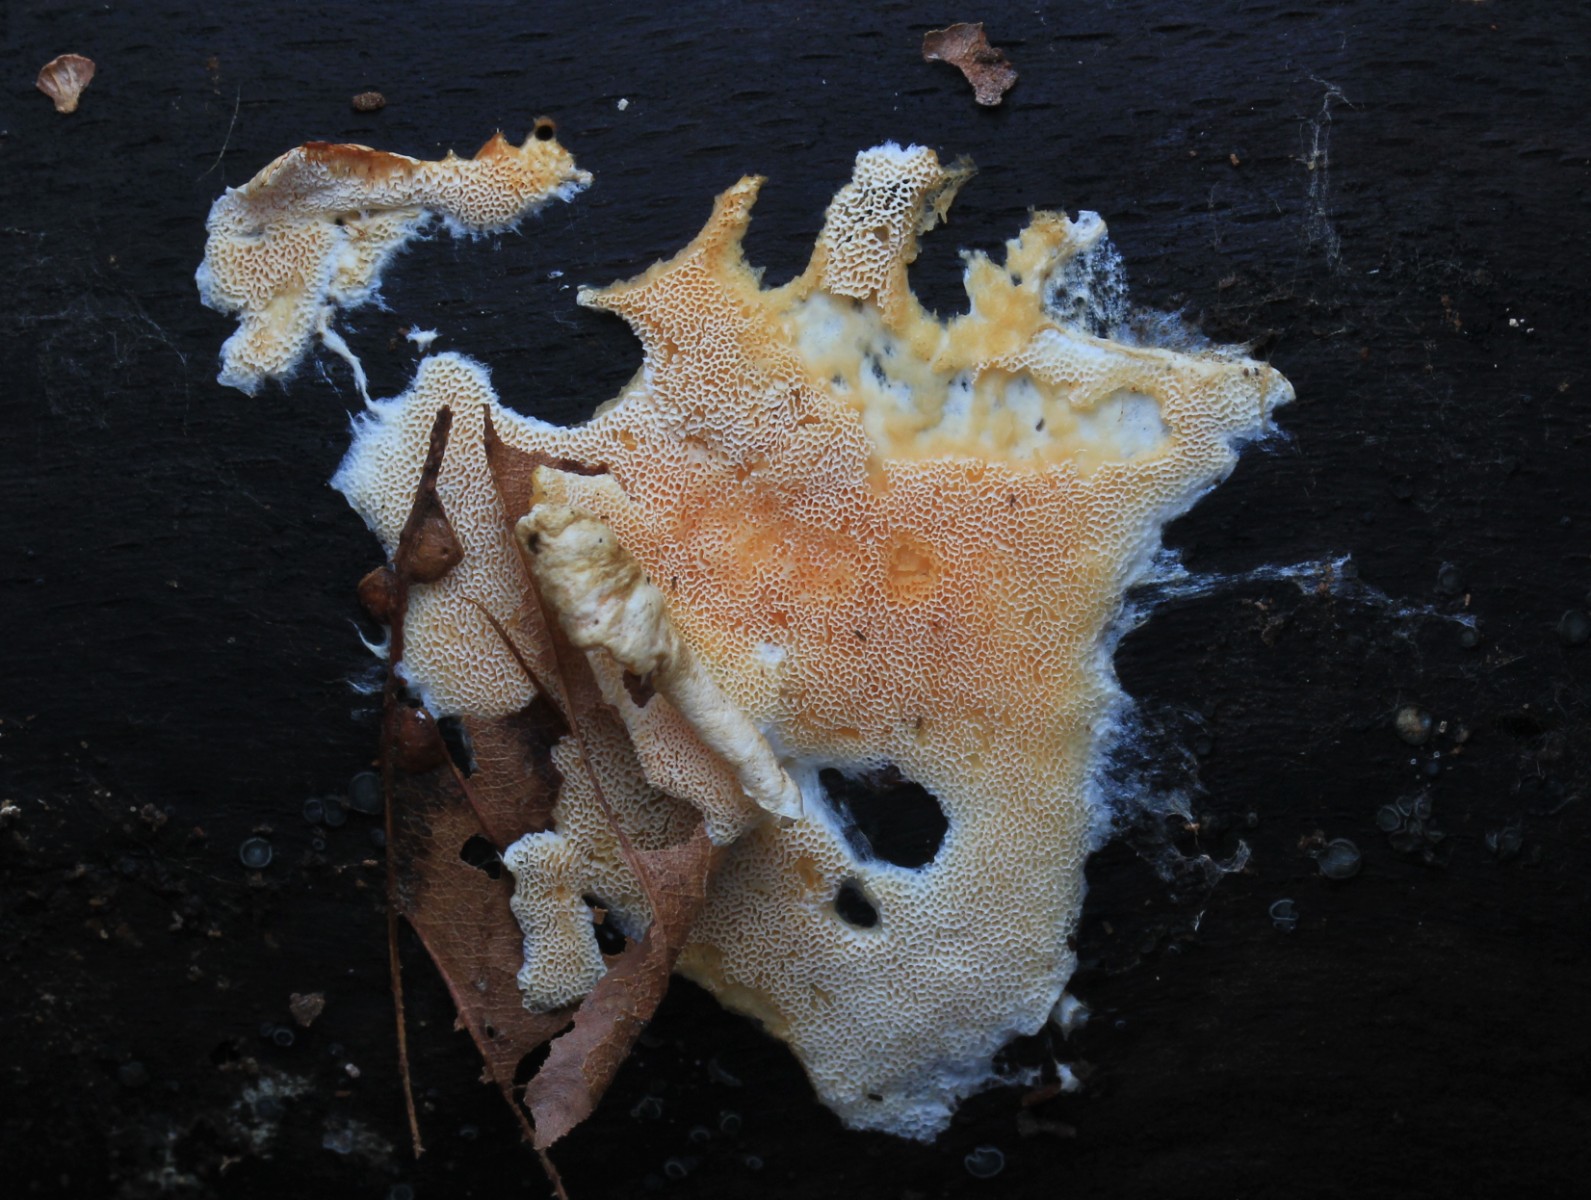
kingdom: Fungi
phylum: Basidiomycota
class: Agaricomycetes
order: Polyporales
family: Steccherinaceae
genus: Junghuhnia
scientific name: Junghuhnia nitida
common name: almindelig skønporesvamp
